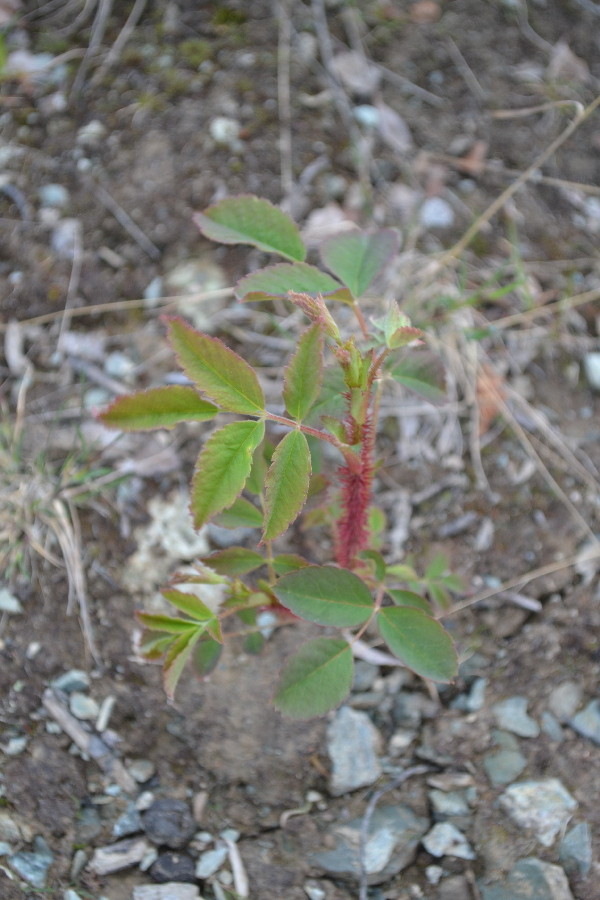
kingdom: Plantae
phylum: Tracheophyta
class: Magnoliopsida
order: Rosales
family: Rosaceae
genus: Rosa
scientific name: Rosa acicularis
